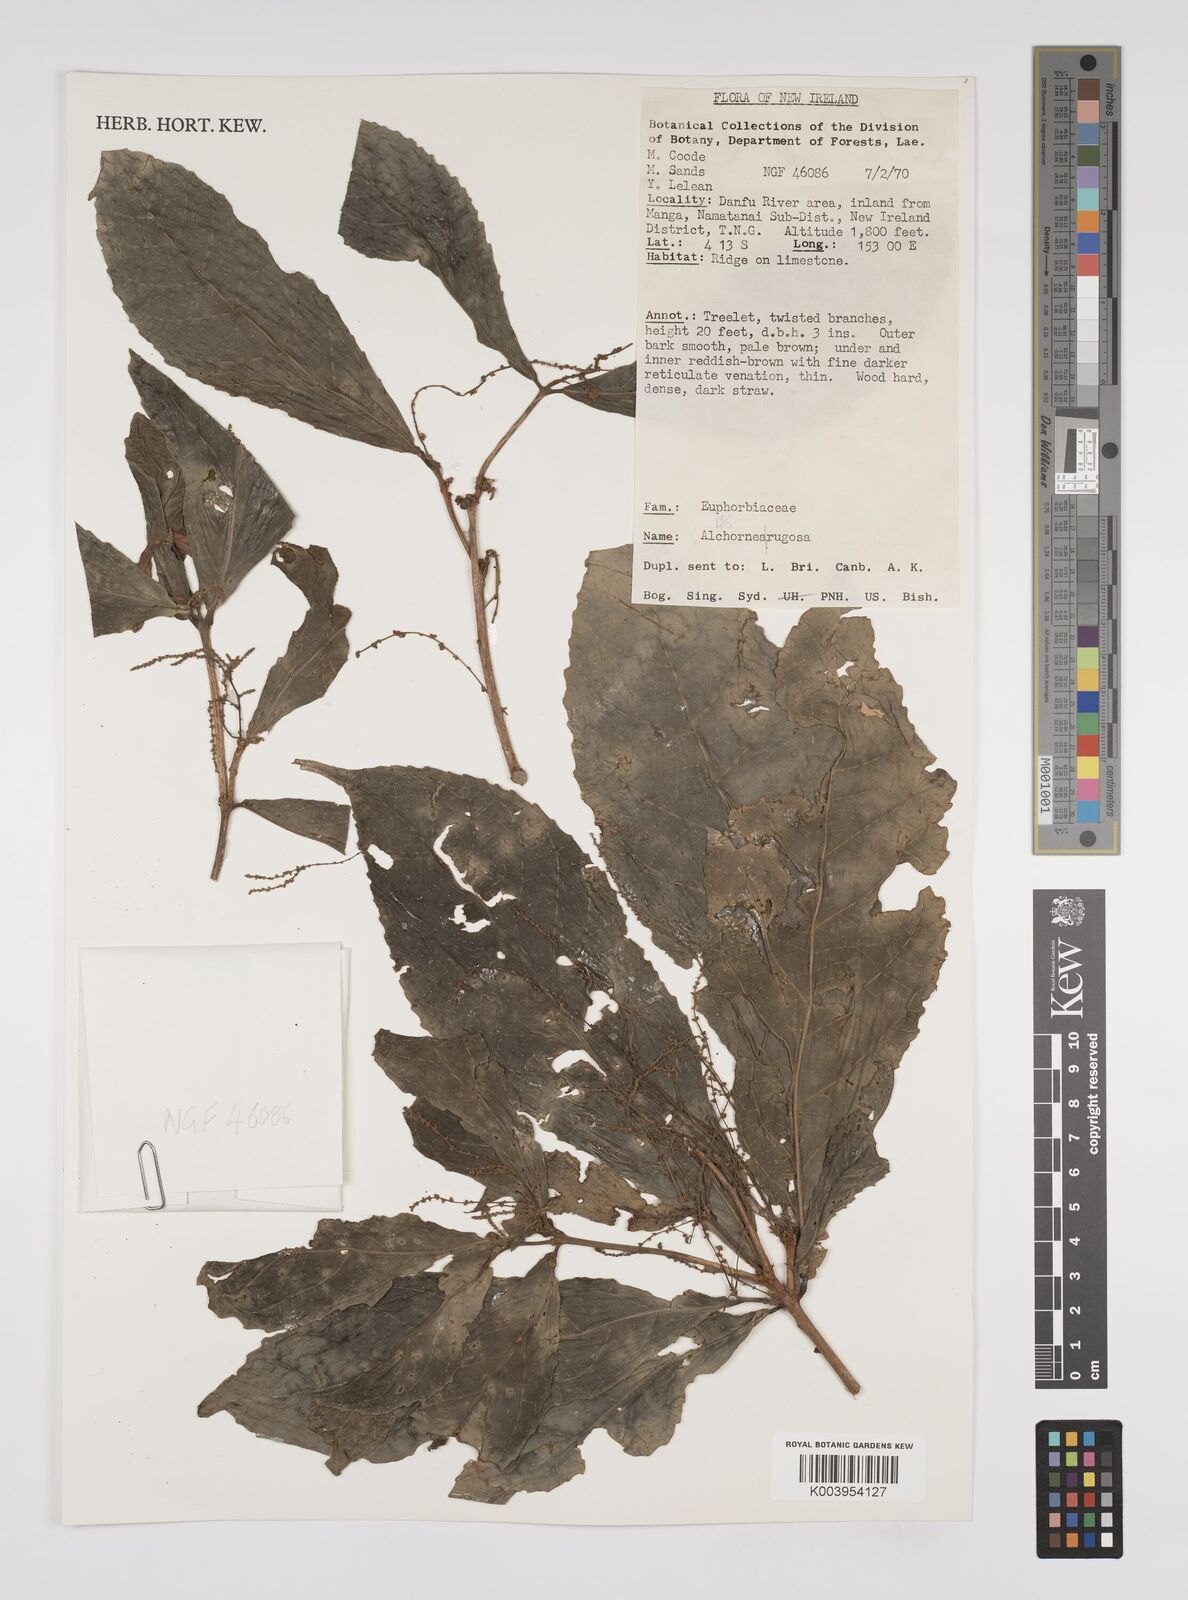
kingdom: Plantae
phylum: Tracheophyta
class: Magnoliopsida
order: Malpighiales
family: Euphorbiaceae
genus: Alchornea
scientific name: Alchornea rugosa
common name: Alchorntree
